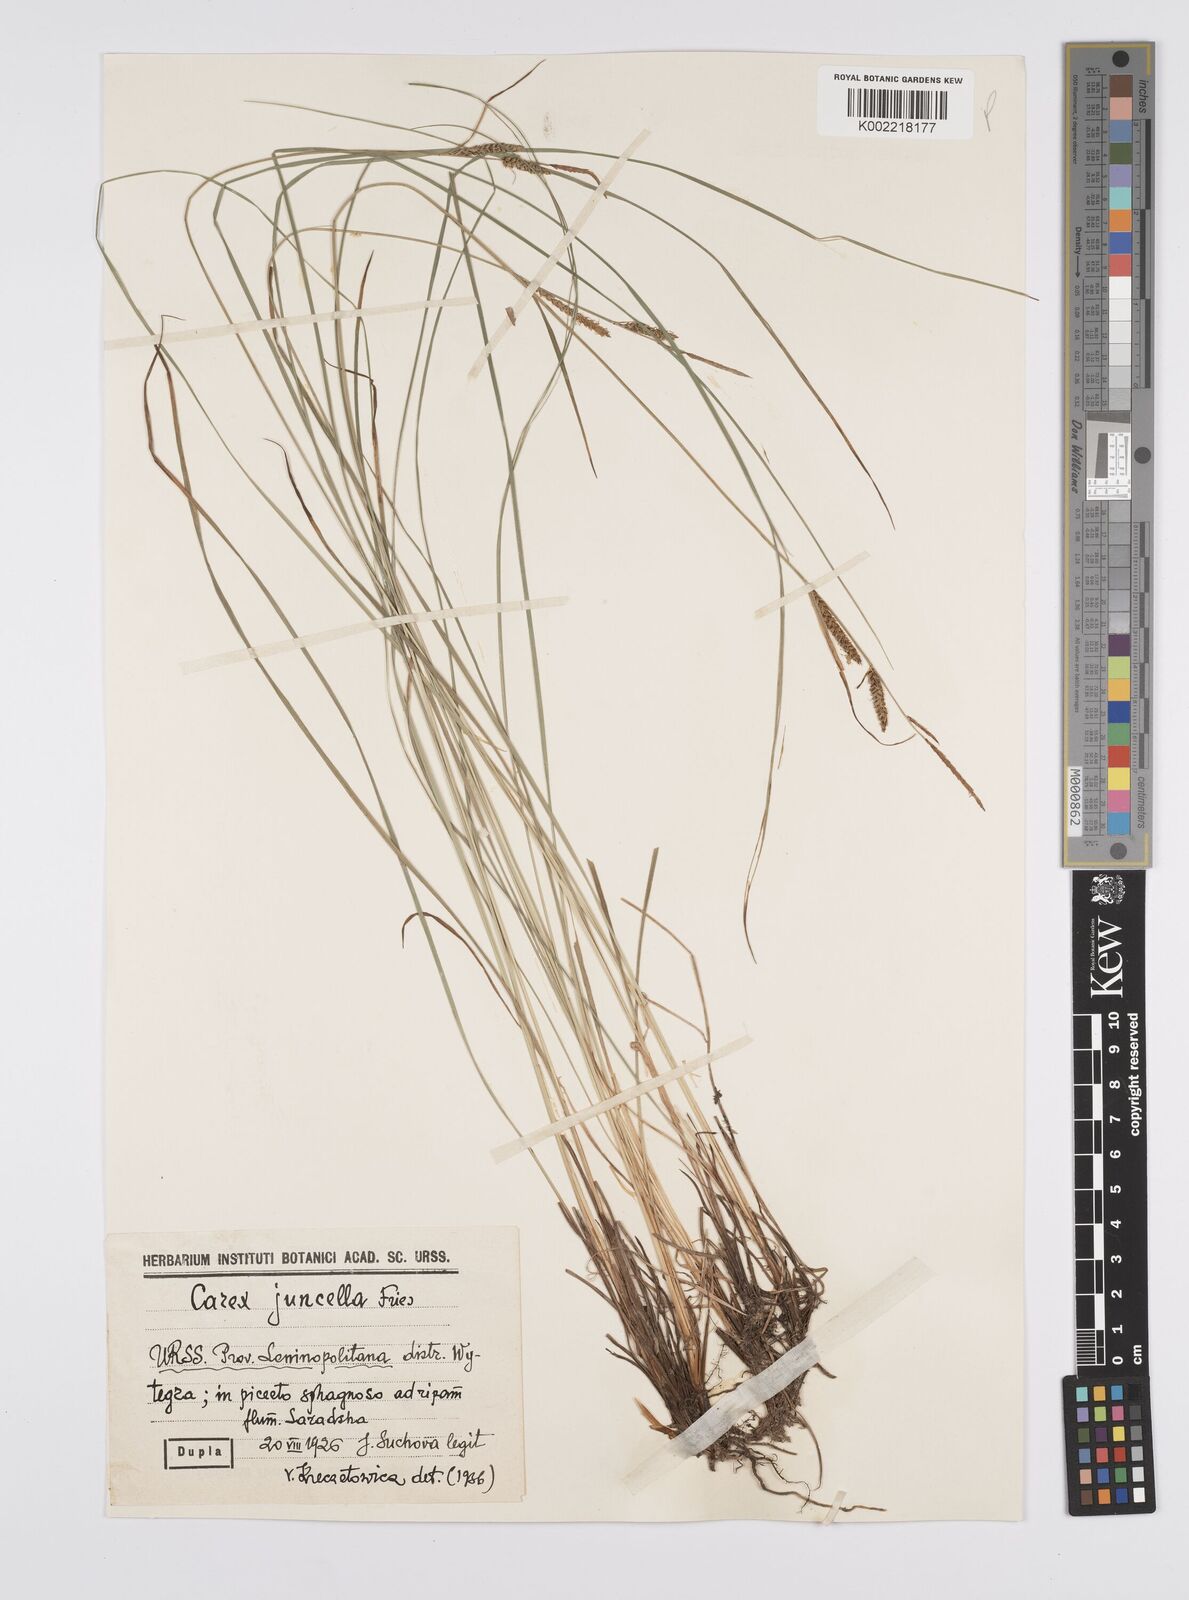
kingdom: Plantae
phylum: Tracheophyta
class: Liliopsida
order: Poales
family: Cyperaceae
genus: Carex
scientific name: Carex nigra
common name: Common sedge
